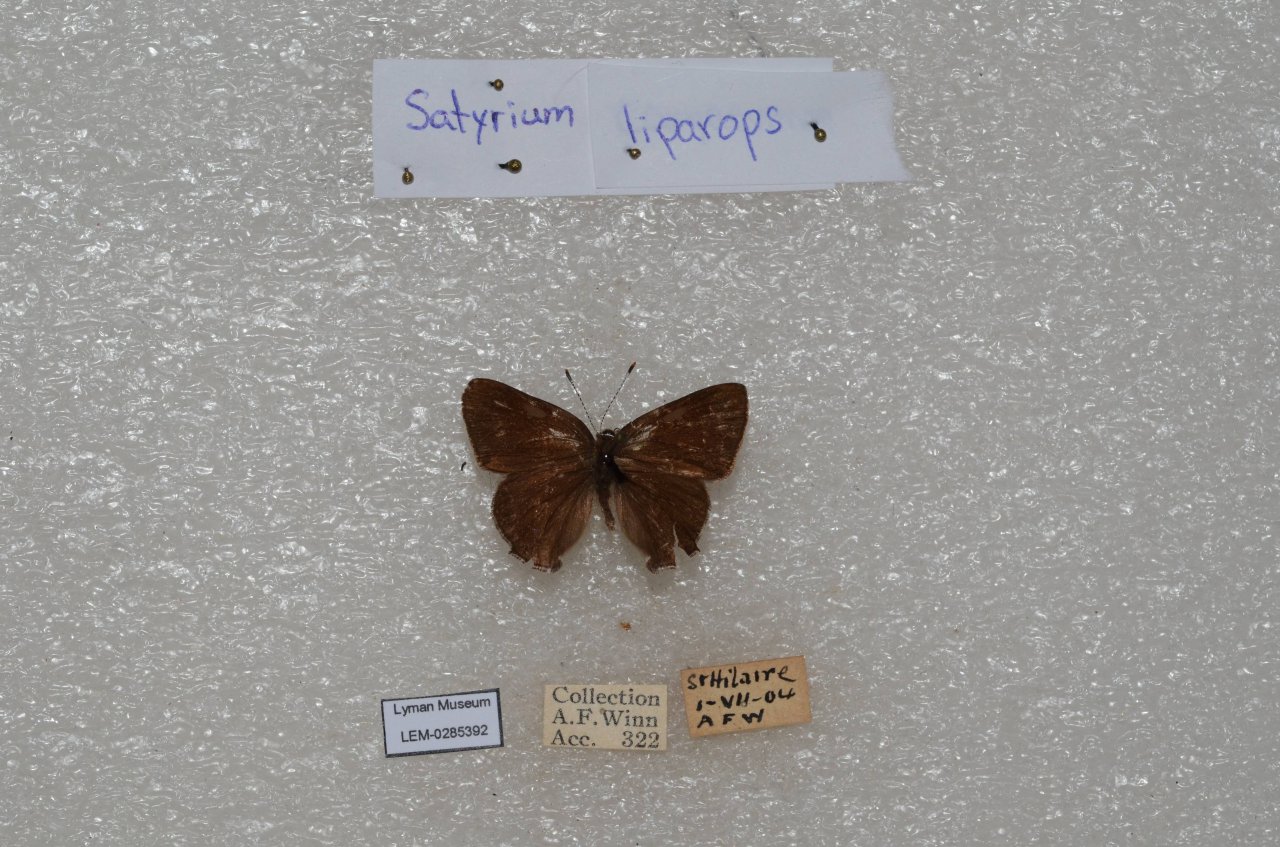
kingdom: Animalia
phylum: Arthropoda
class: Insecta
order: Lepidoptera
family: Lycaenidae
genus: Satyrium
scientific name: Satyrium liparops
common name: Striped Hairstreak
